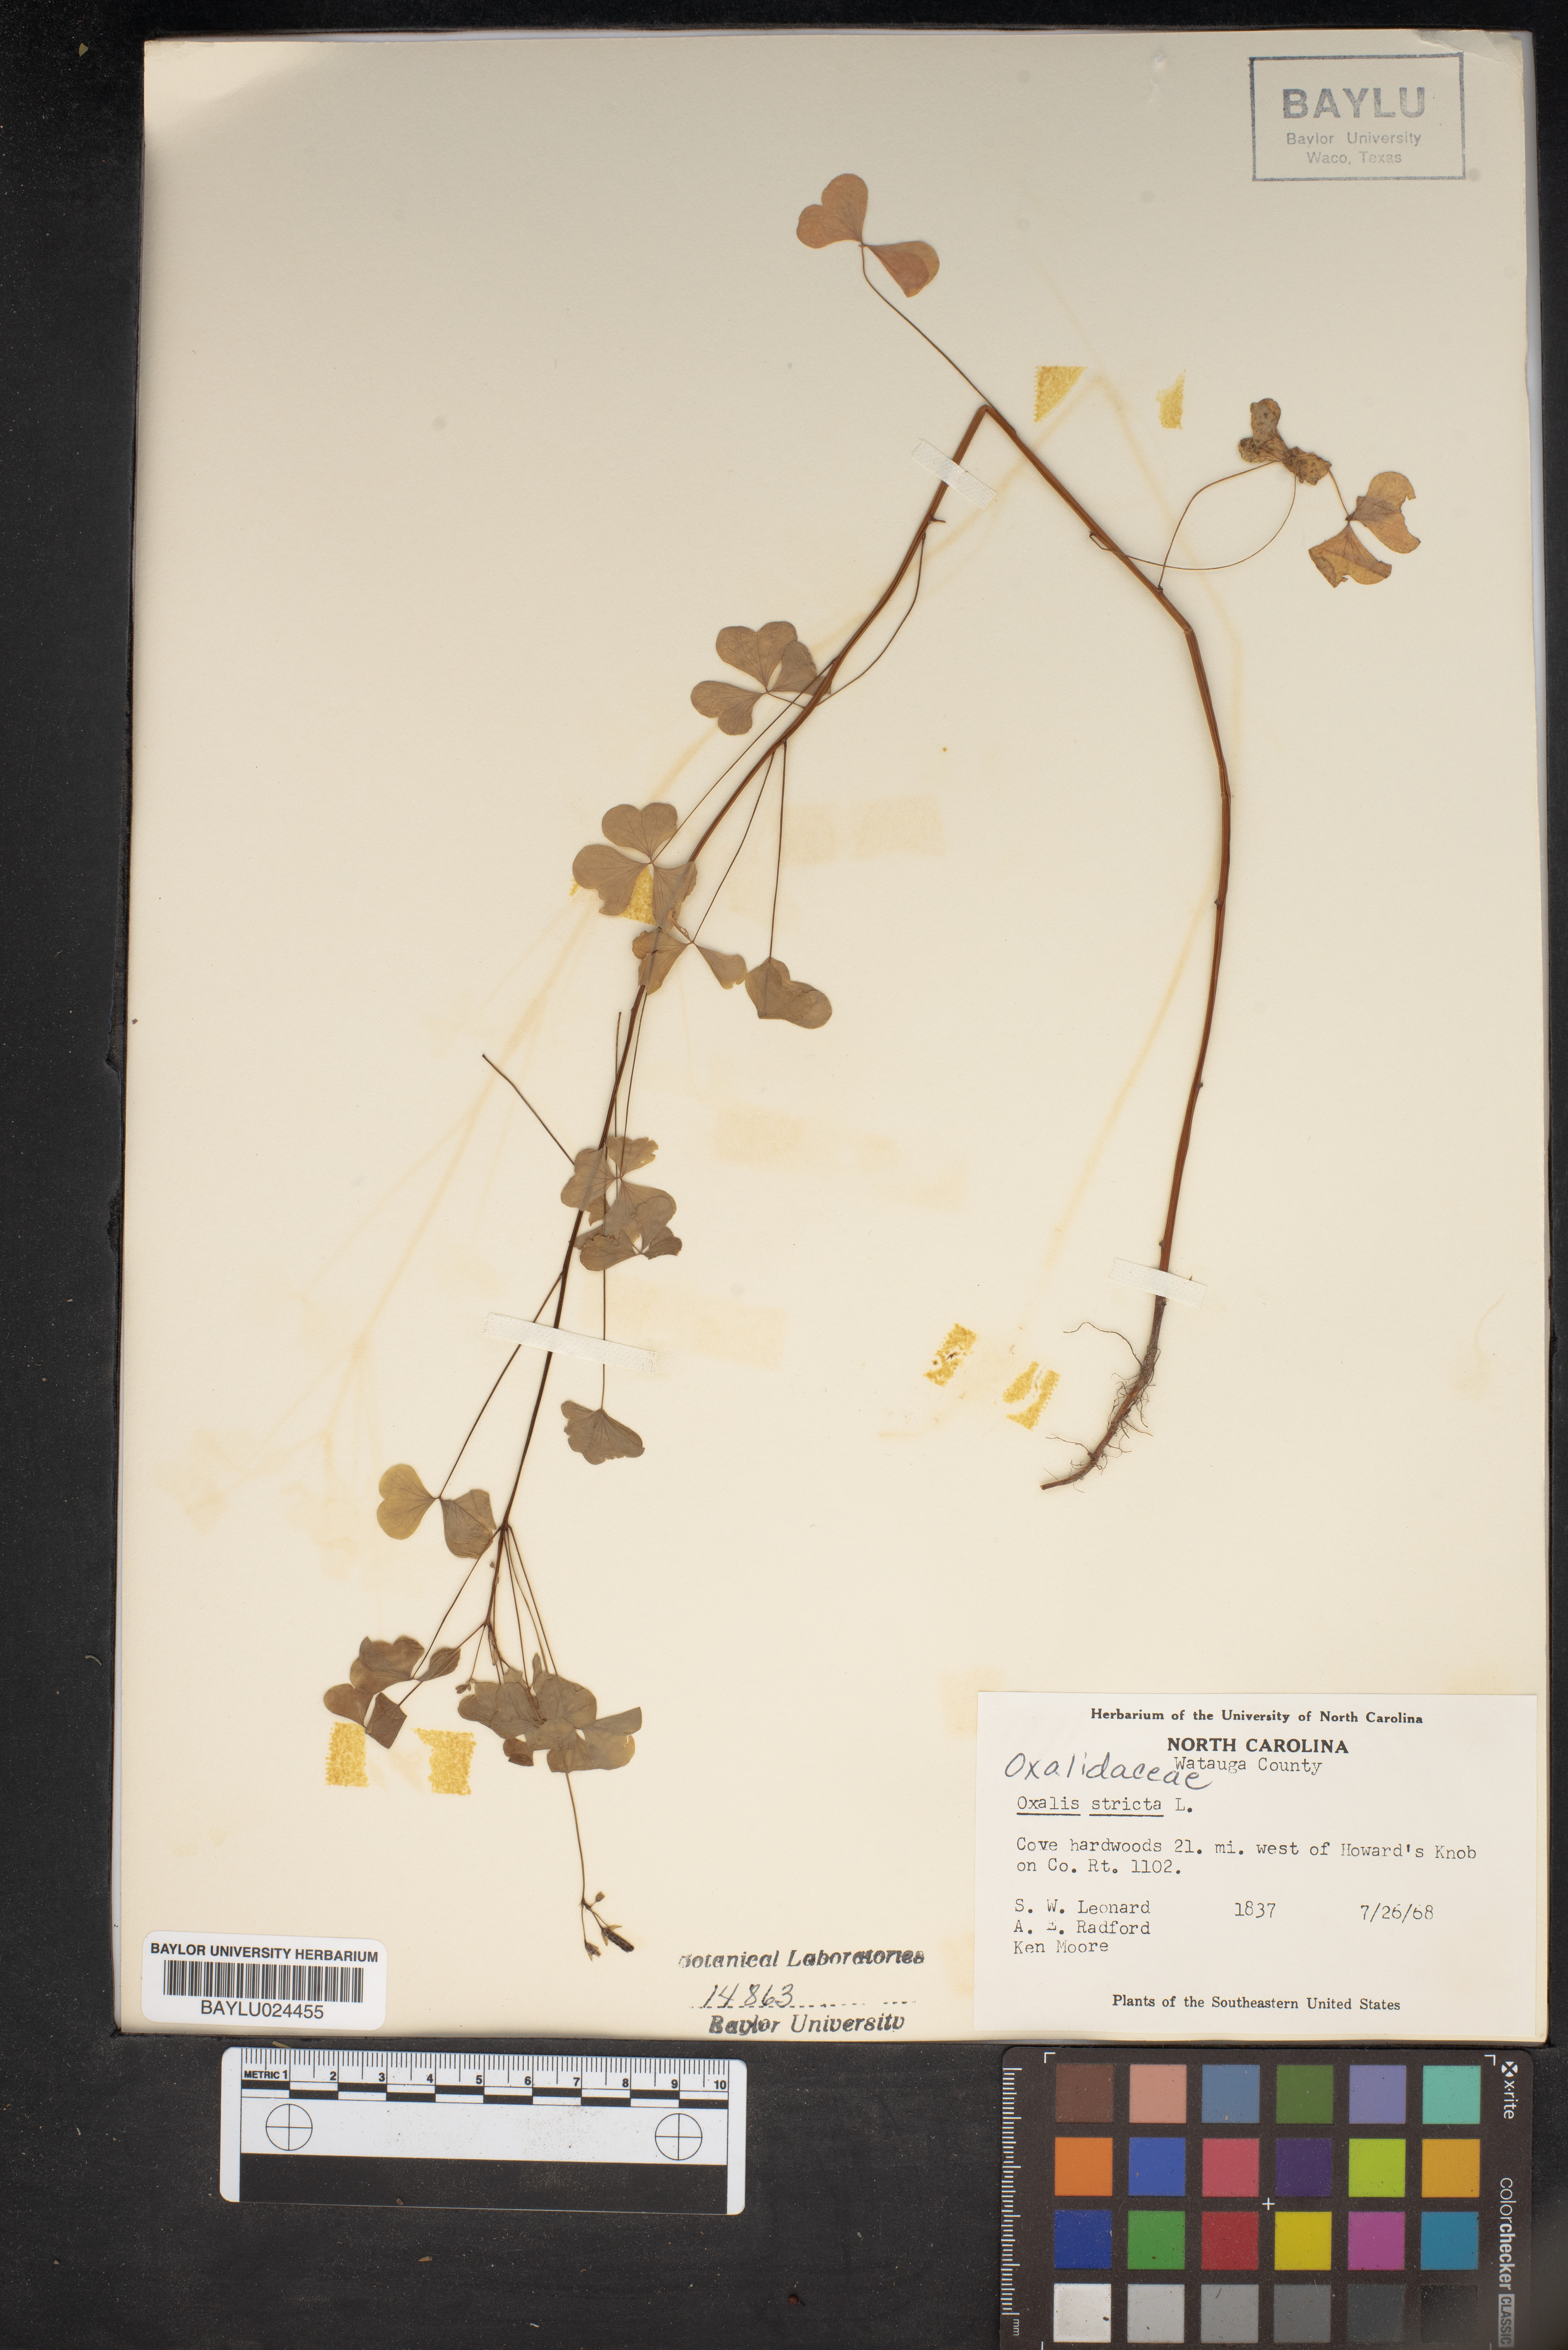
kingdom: Plantae
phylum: Tracheophyta
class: Magnoliopsida
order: Oxalidales
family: Oxalidaceae
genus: Oxalis
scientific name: Oxalis stricta
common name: Upright yellow-sorrel
